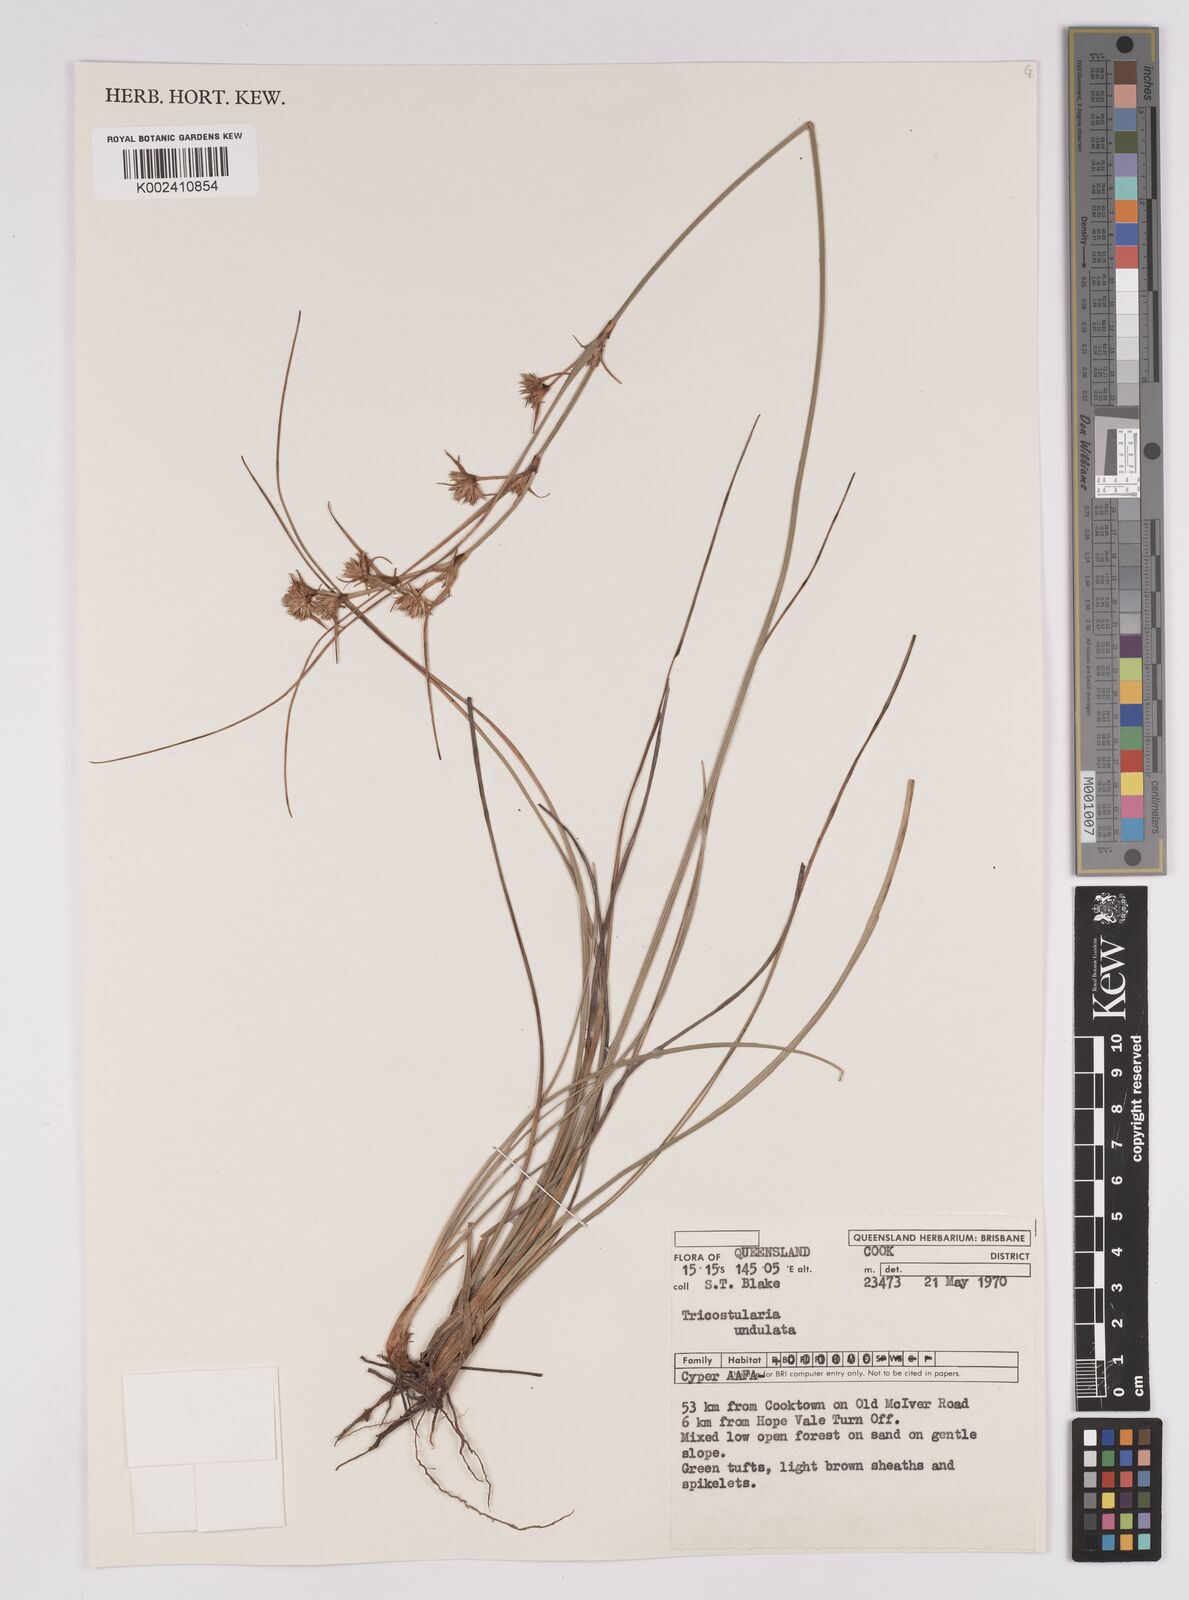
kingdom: Plantae
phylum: Tracheophyta
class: Liliopsida
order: Poales
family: Cyperaceae
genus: Anthelepis
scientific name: Anthelepis undulata
